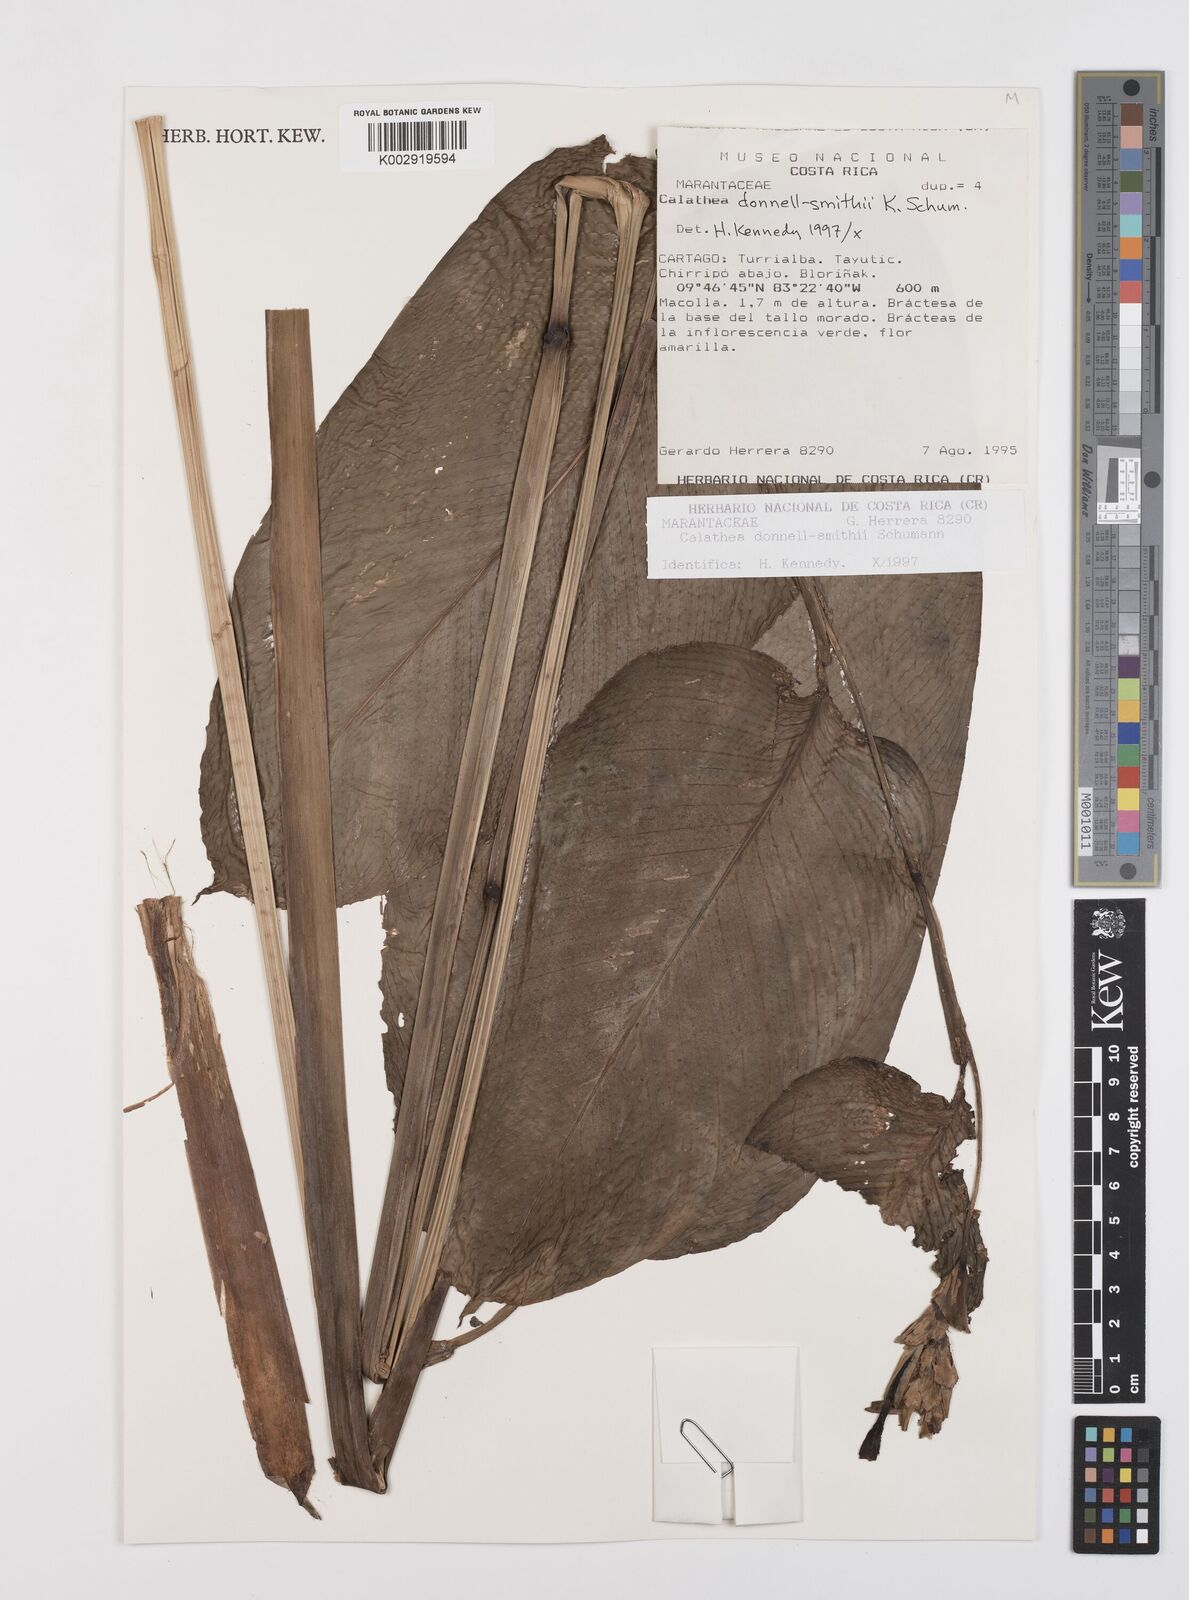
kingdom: Plantae
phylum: Tracheophyta
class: Liliopsida
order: Zingiberales
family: Marantaceae
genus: Goeppertia
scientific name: Goeppertia donnell-smithii
